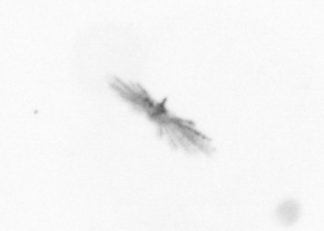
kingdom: Chromista
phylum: Ochrophyta
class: Bacillariophyceae
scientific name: Bacillariophyceae
